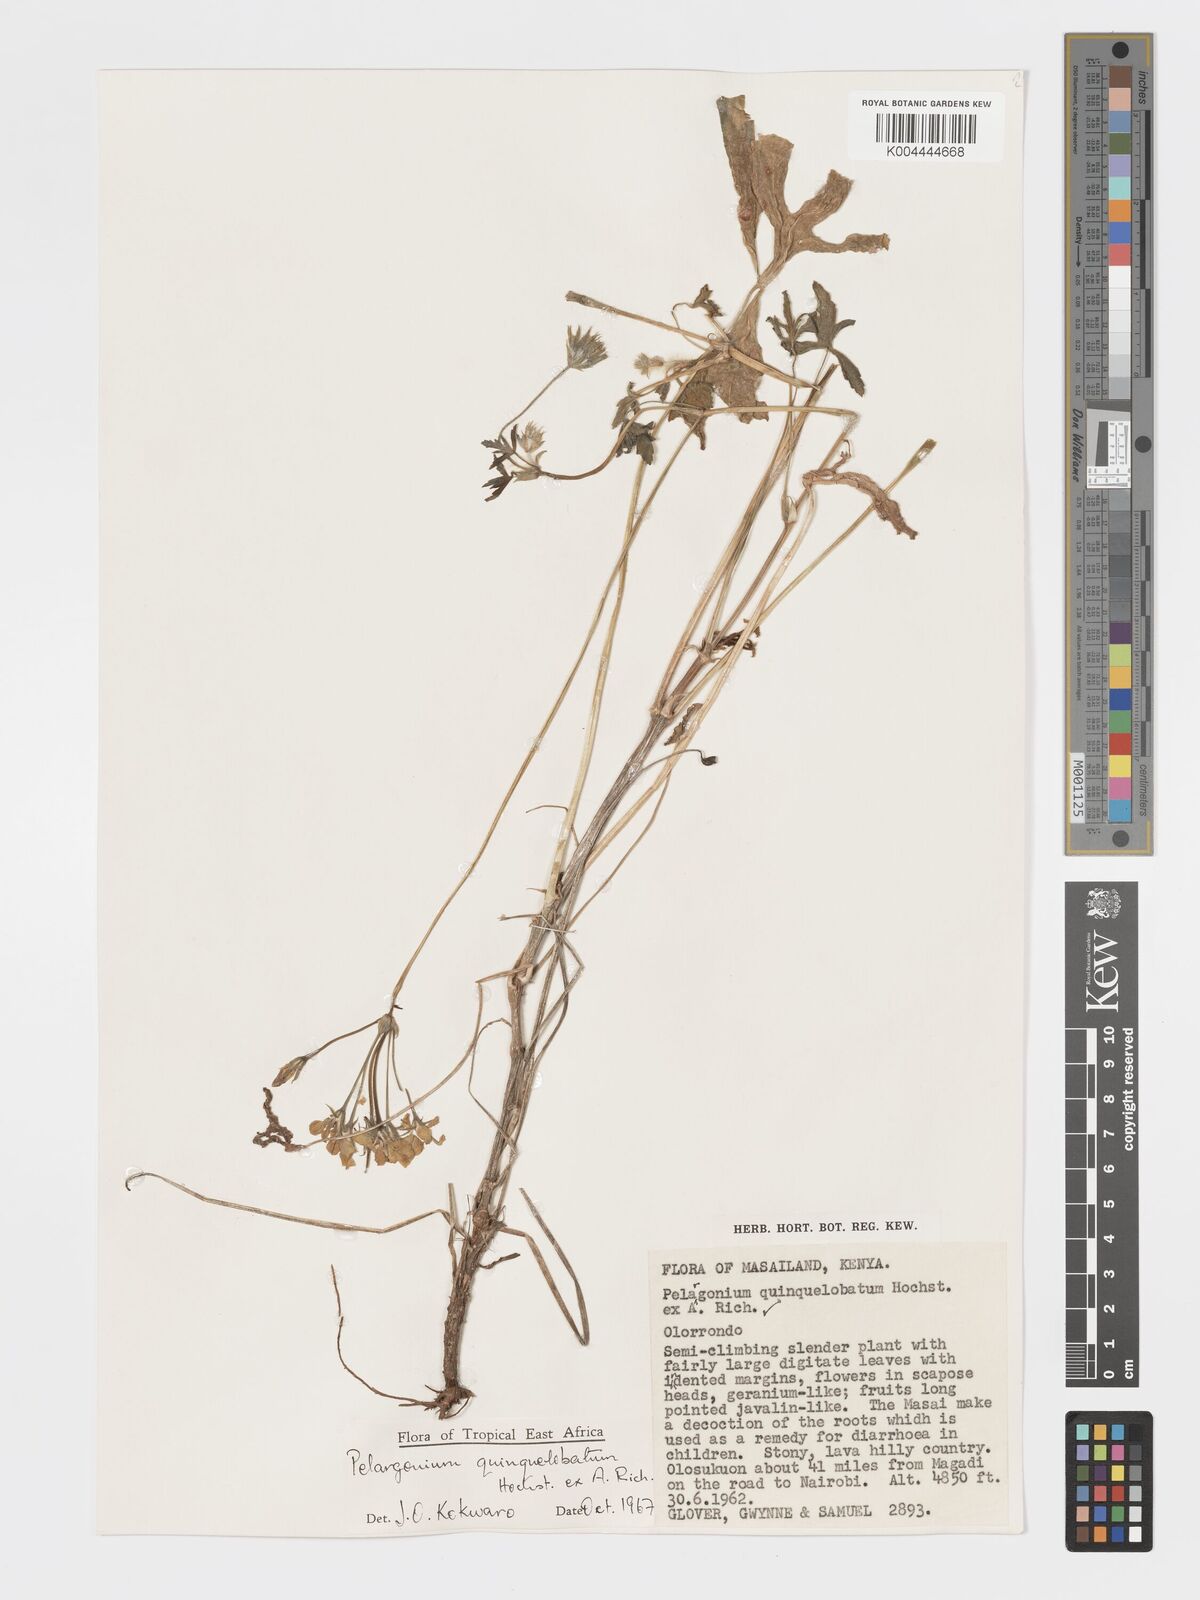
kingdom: Plantae
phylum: Tracheophyta
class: Magnoliopsida
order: Geraniales
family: Geraniaceae
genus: Pelargonium
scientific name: Pelargonium quinquelobatum
